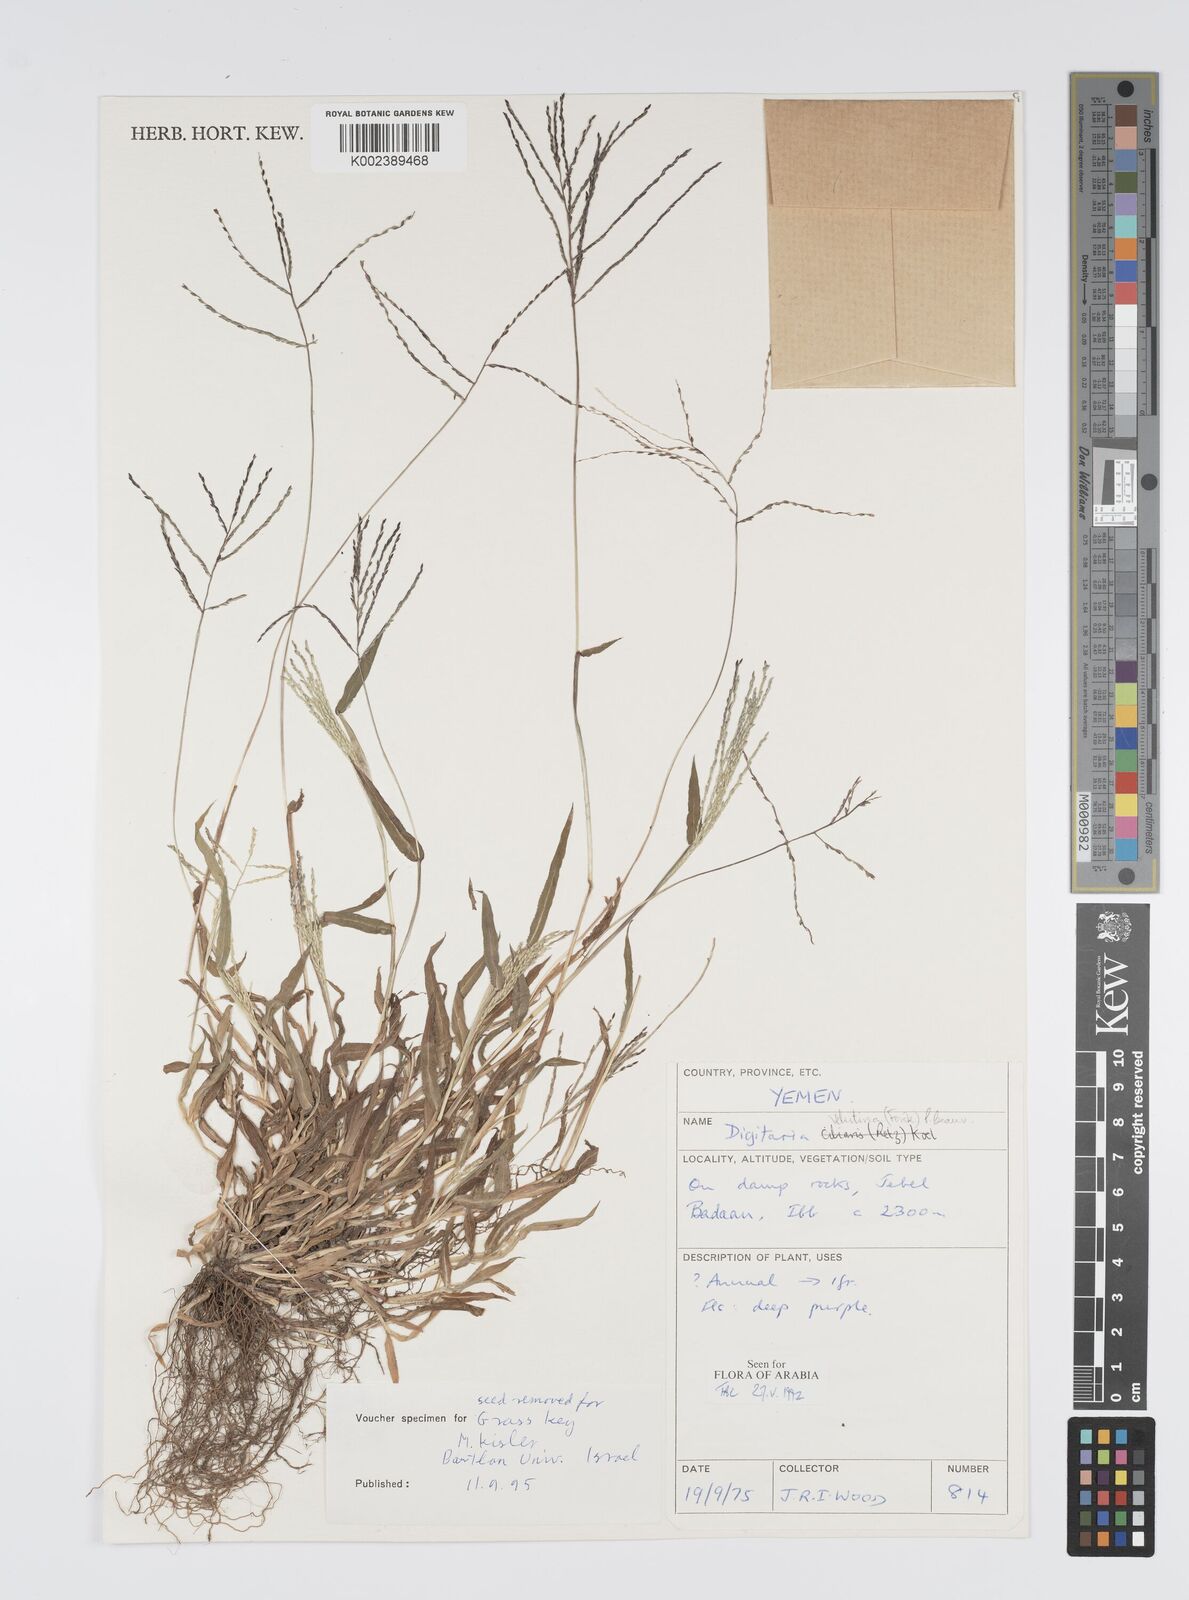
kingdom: Plantae
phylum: Tracheophyta
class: Liliopsida
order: Poales
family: Poaceae
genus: Digitaria
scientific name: Digitaria velutina
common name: Long-plume finger grass
